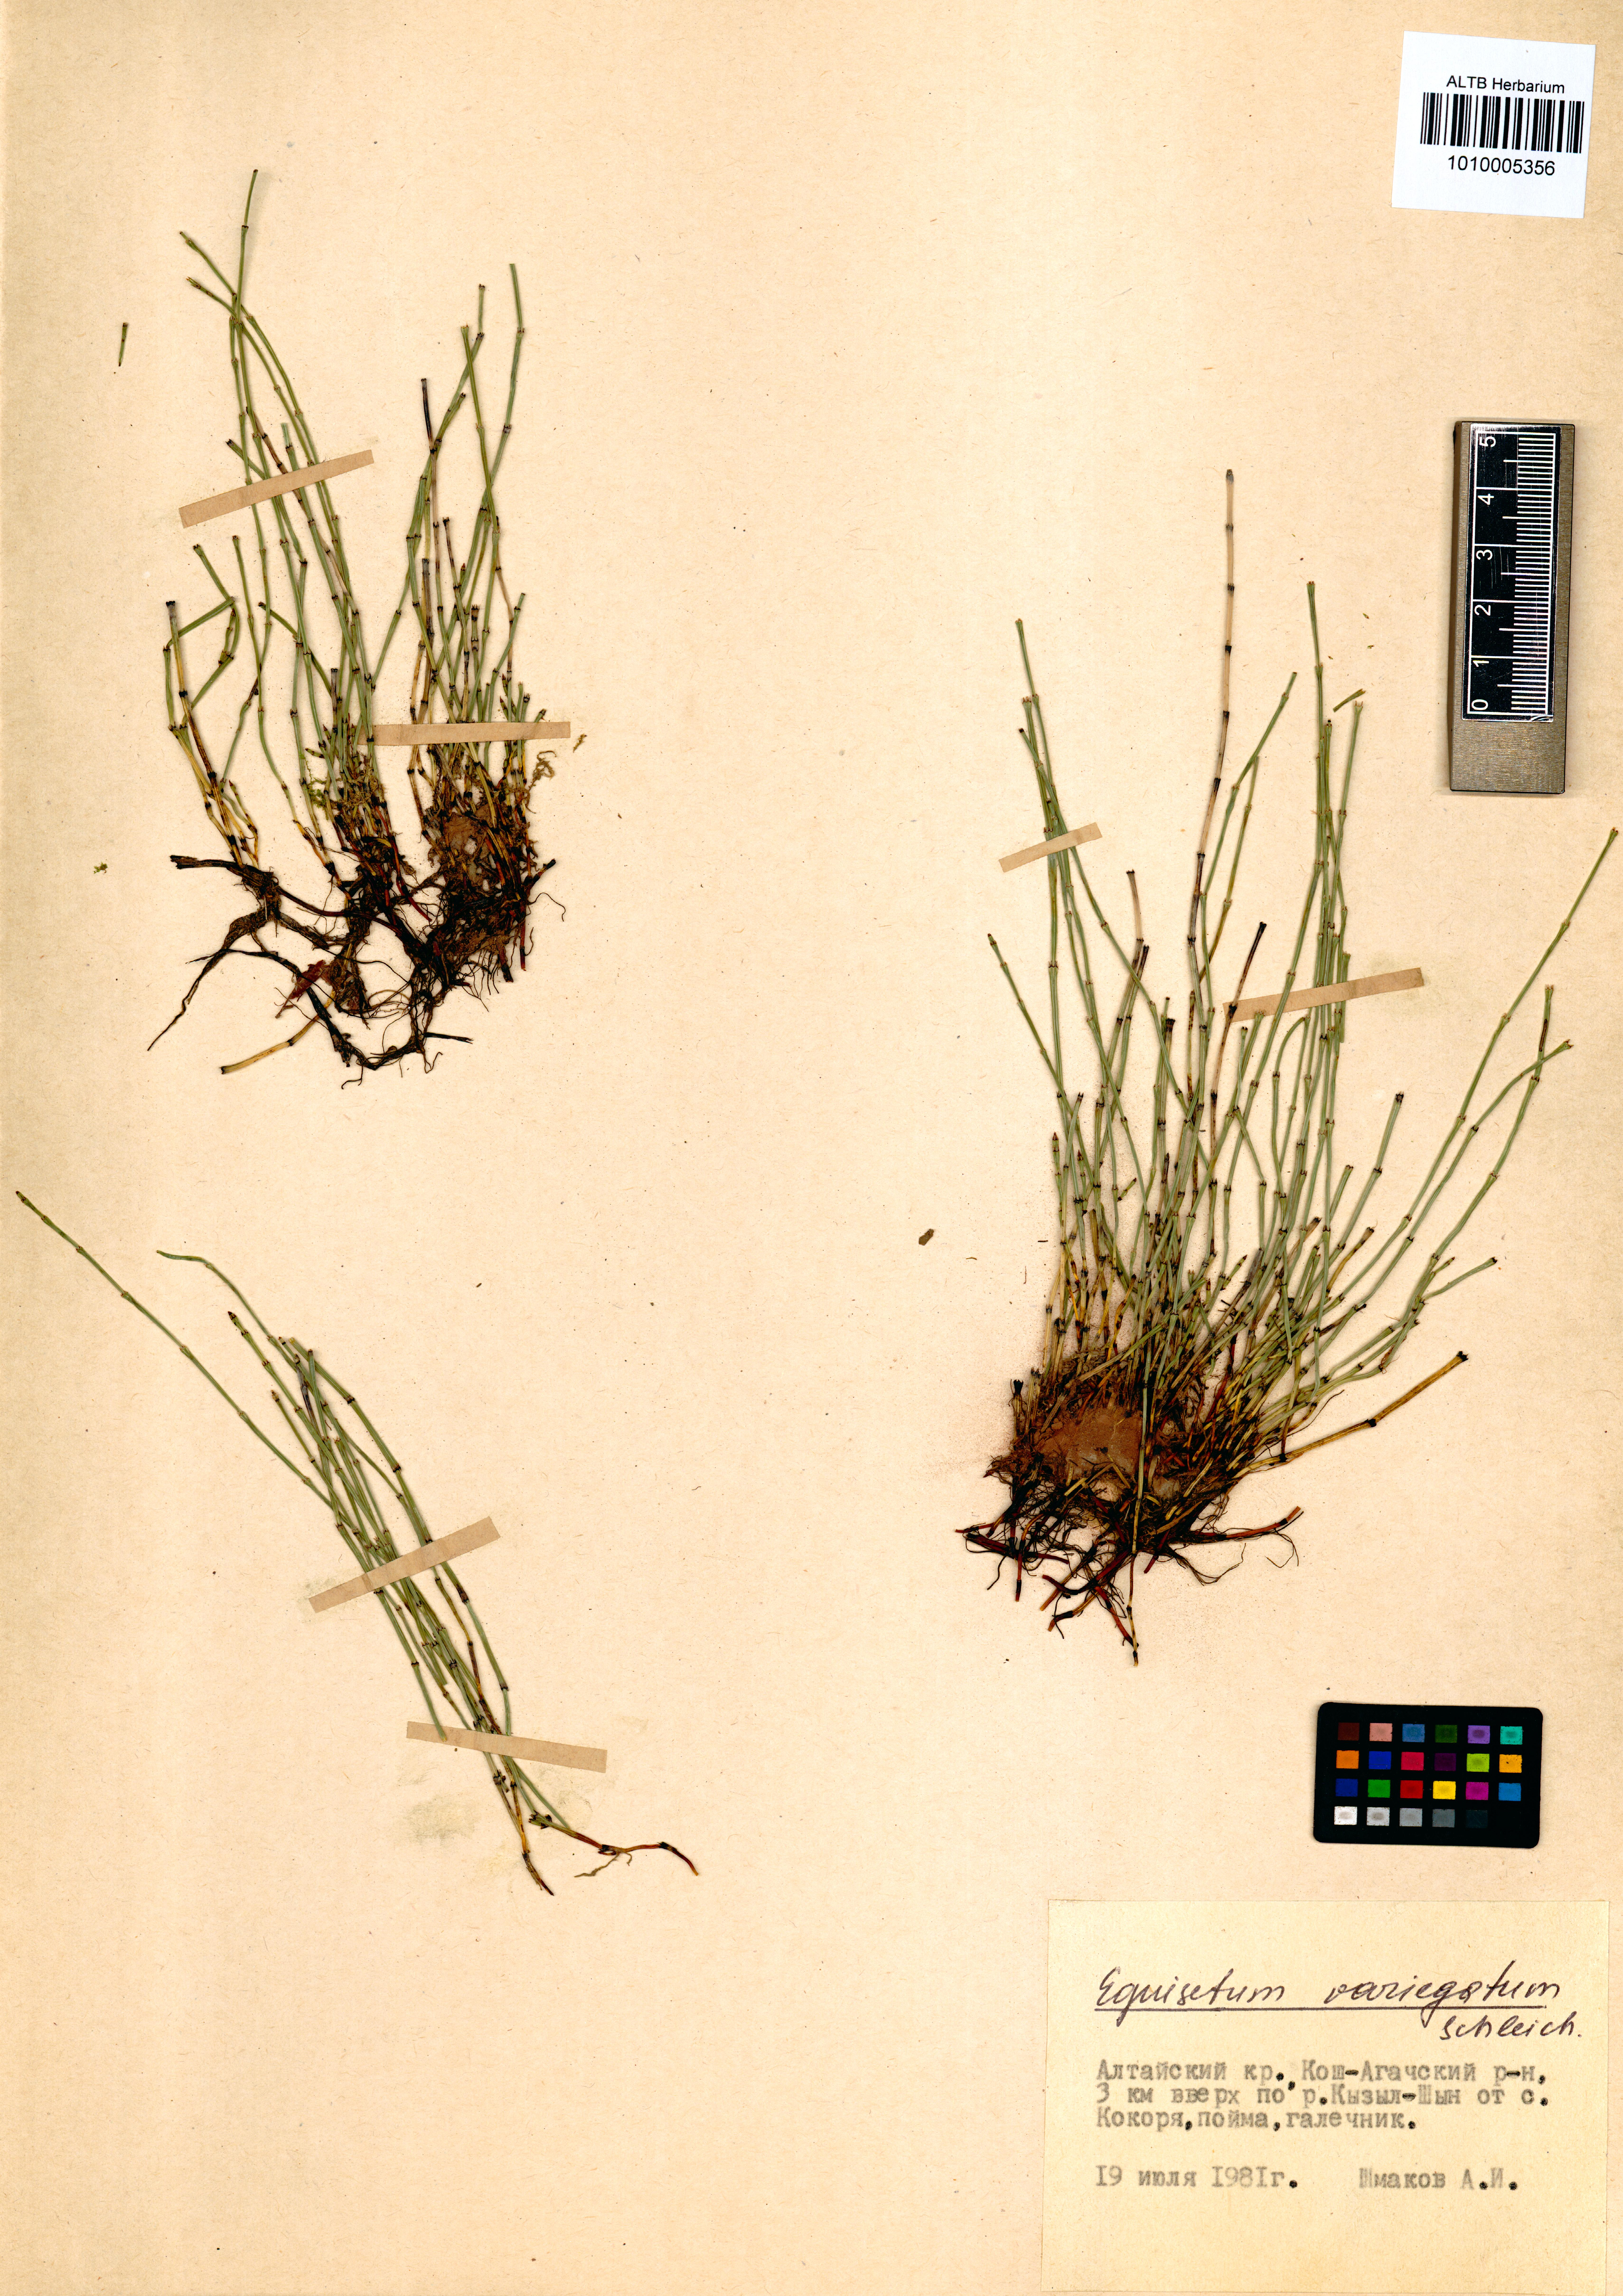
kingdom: Plantae
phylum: Tracheophyta
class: Polypodiopsida
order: Equisetales
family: Equisetaceae
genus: Equisetum
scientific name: Equisetum variegatum
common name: Variegated horsetail
